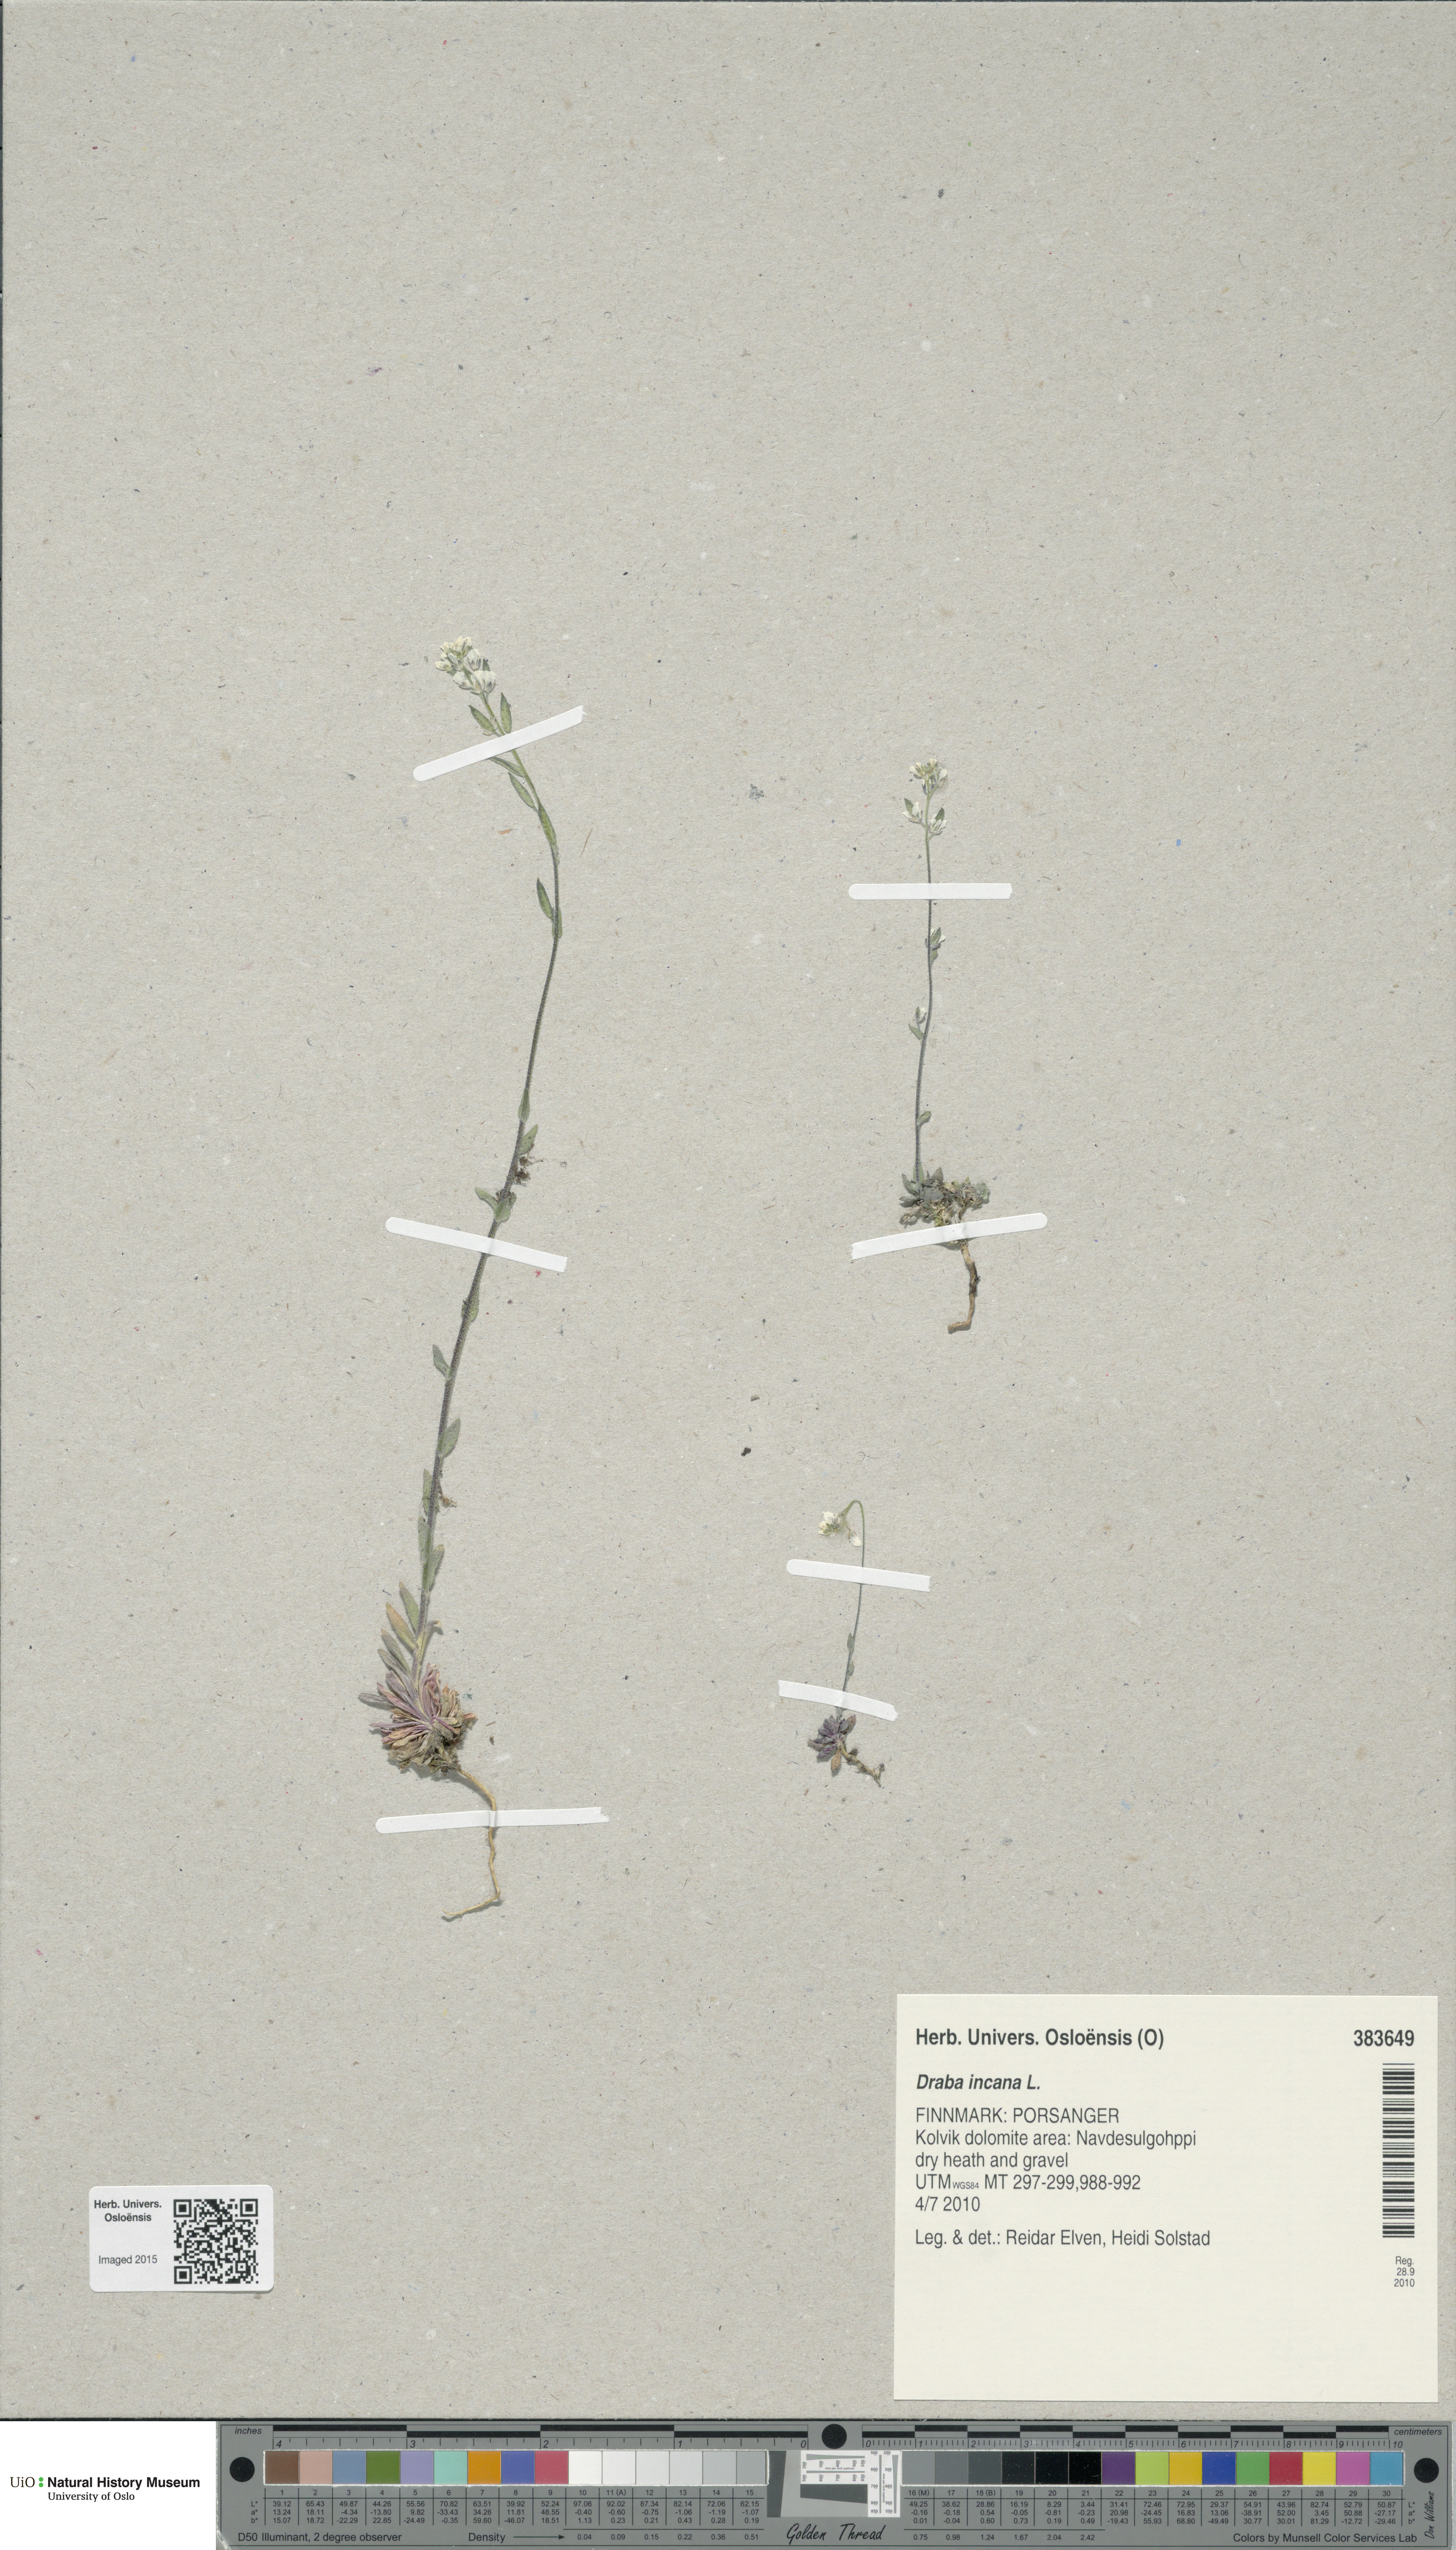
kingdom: Plantae
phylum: Tracheophyta
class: Magnoliopsida
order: Brassicales
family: Brassicaceae
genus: Draba
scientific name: Draba incana
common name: Hoary whitlow-grass
